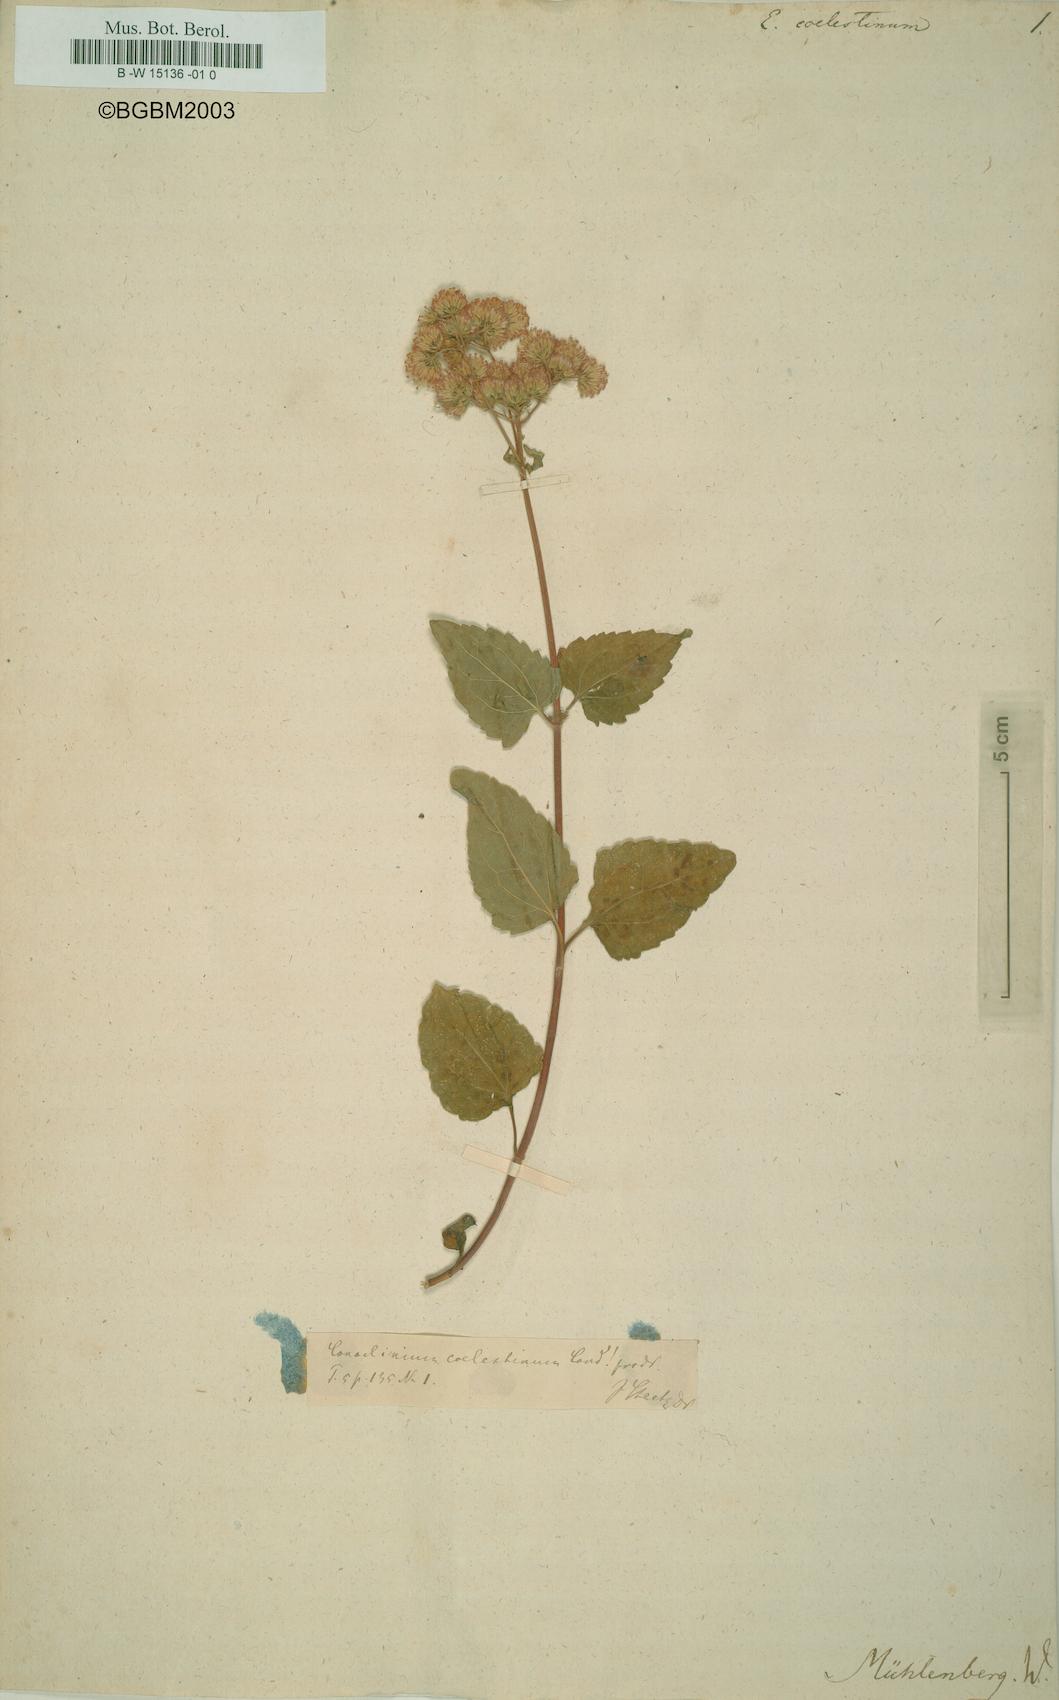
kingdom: Plantae
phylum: Tracheophyta
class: Magnoliopsida
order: Asterales
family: Asteraceae
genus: Eupatorium
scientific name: Eupatorium coelestinum
